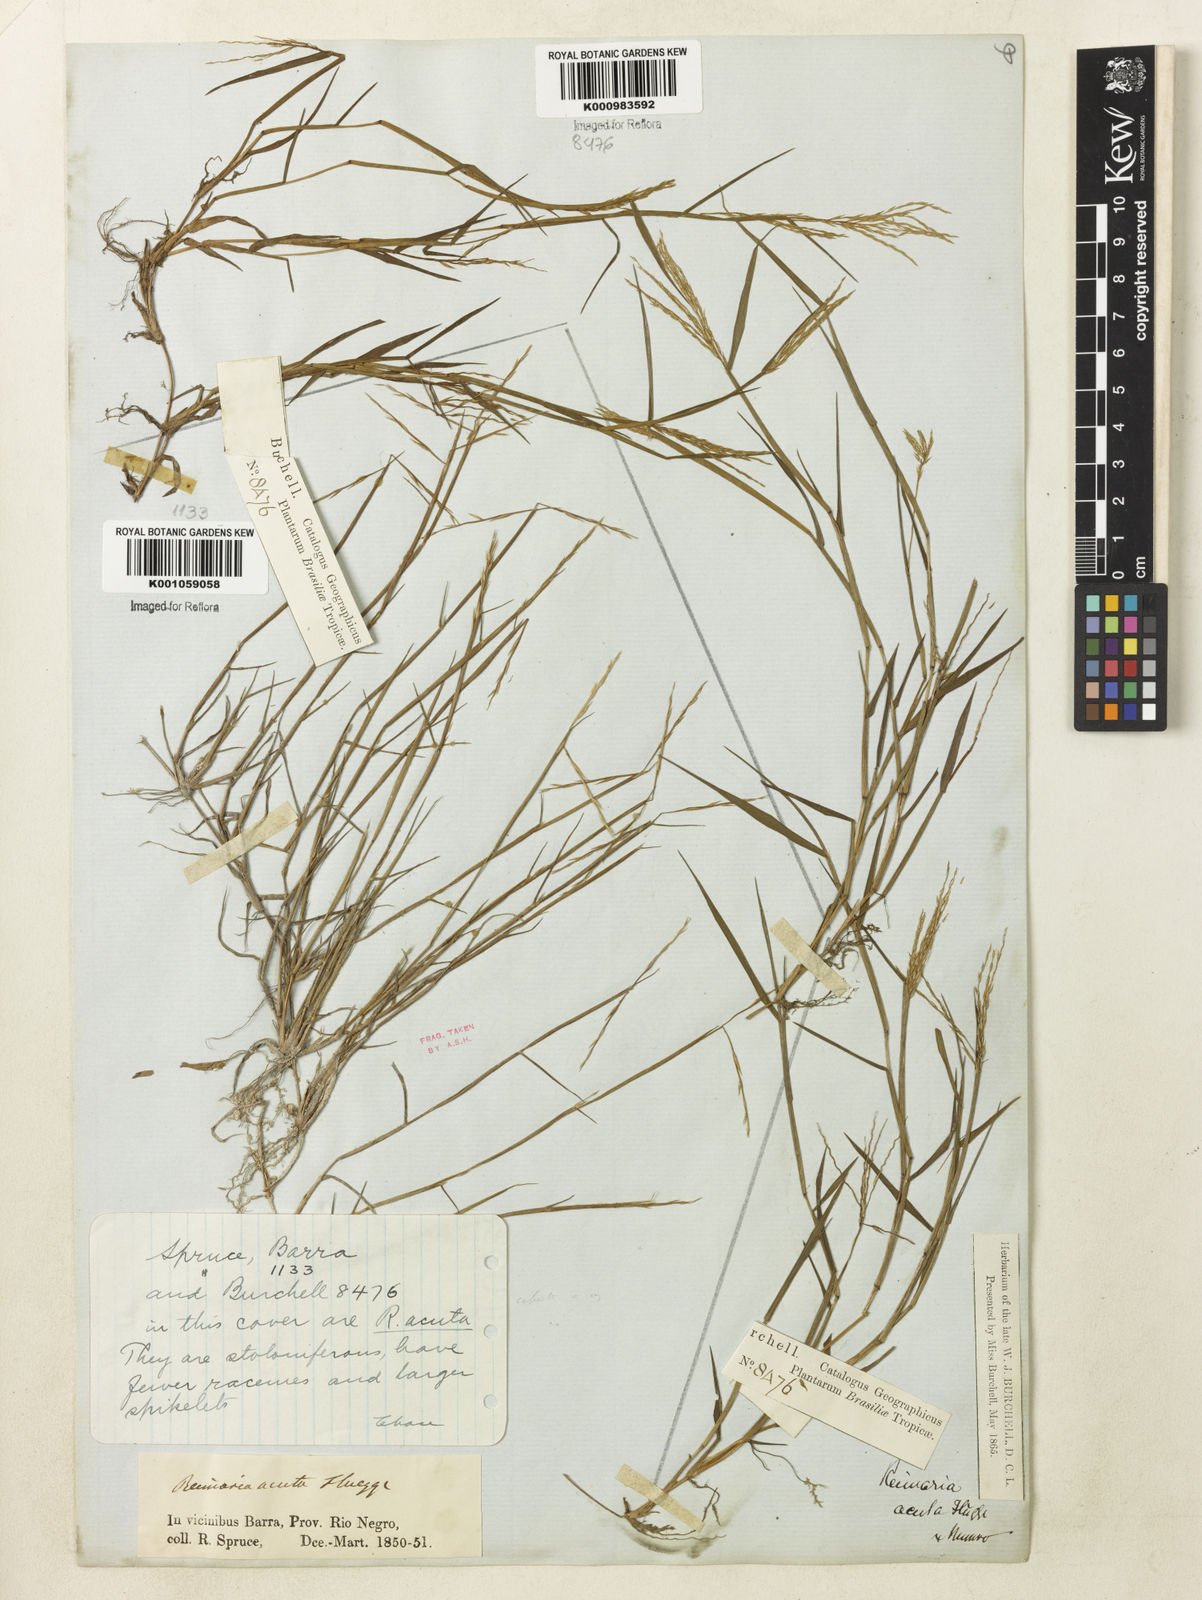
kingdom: Plantae
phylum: Tracheophyta
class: Liliopsida
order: Poales
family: Poaceae
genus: Paspalum
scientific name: Paspalum
